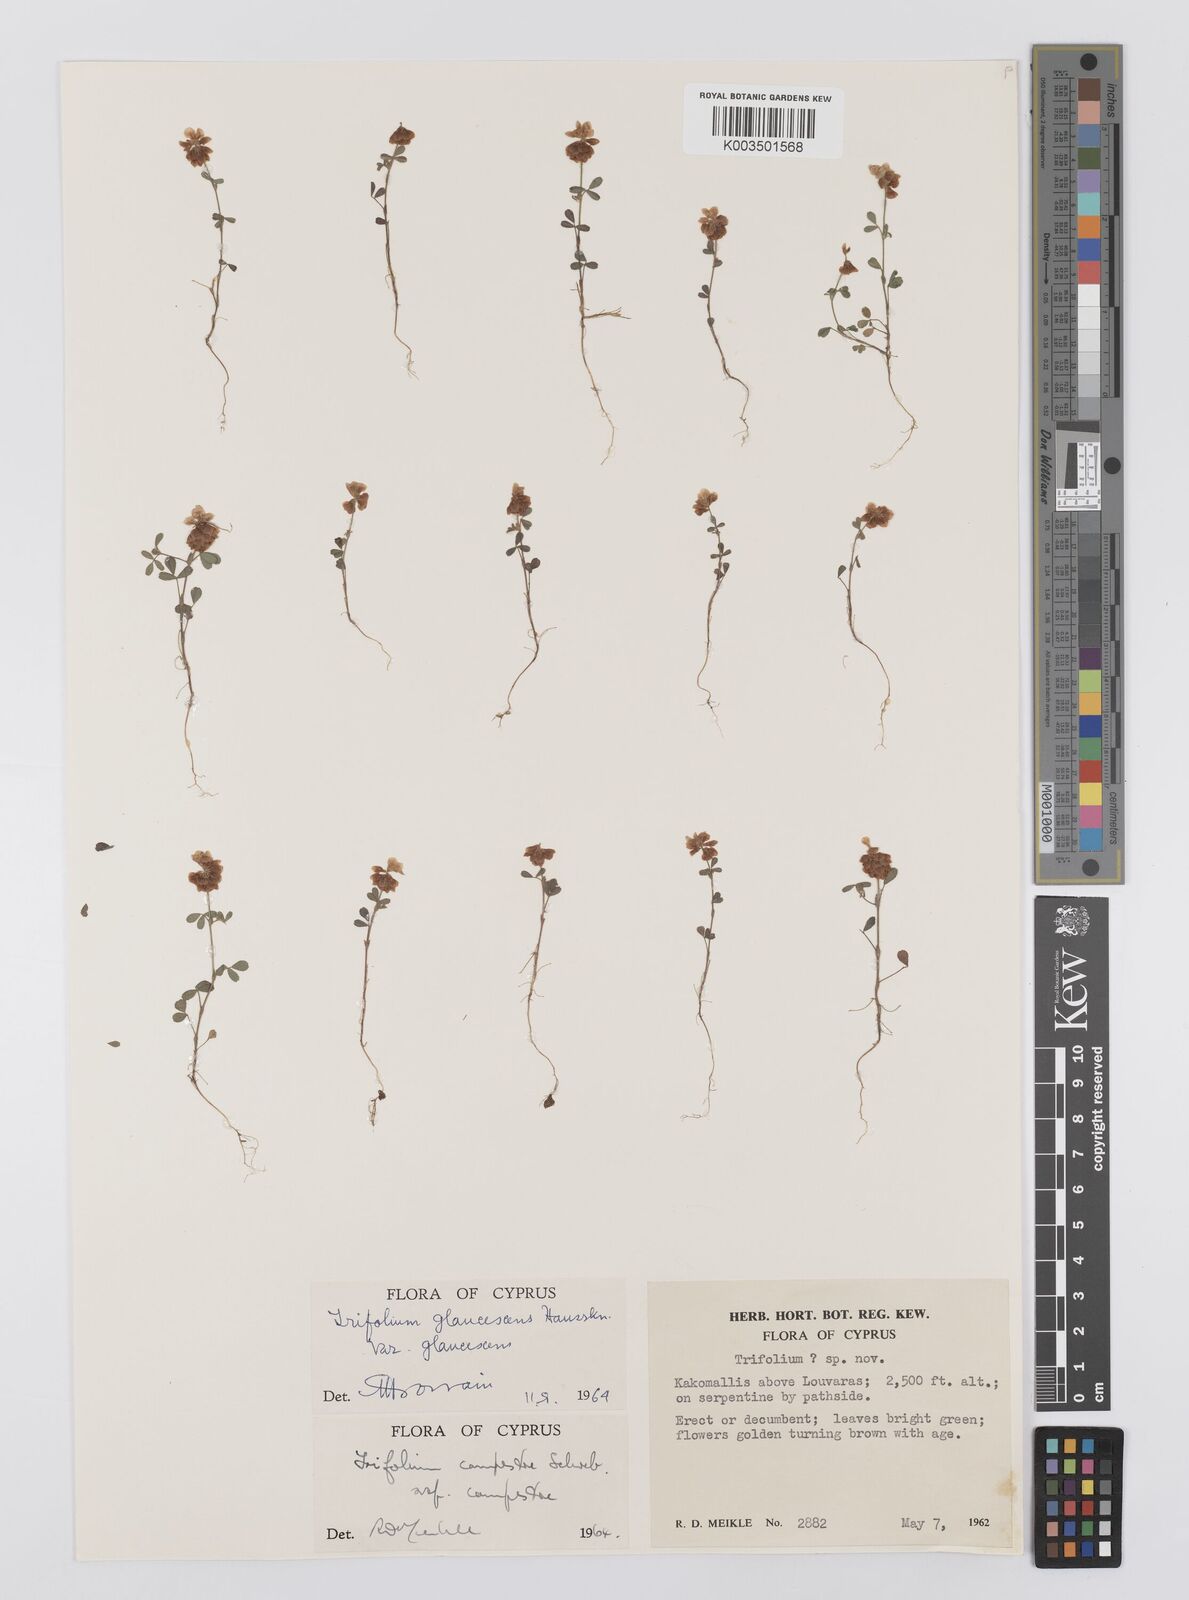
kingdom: Plantae
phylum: Tracheophyta
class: Magnoliopsida
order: Fabales
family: Fabaceae
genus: Trifolium
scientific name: Trifolium campestre
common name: Field clover
